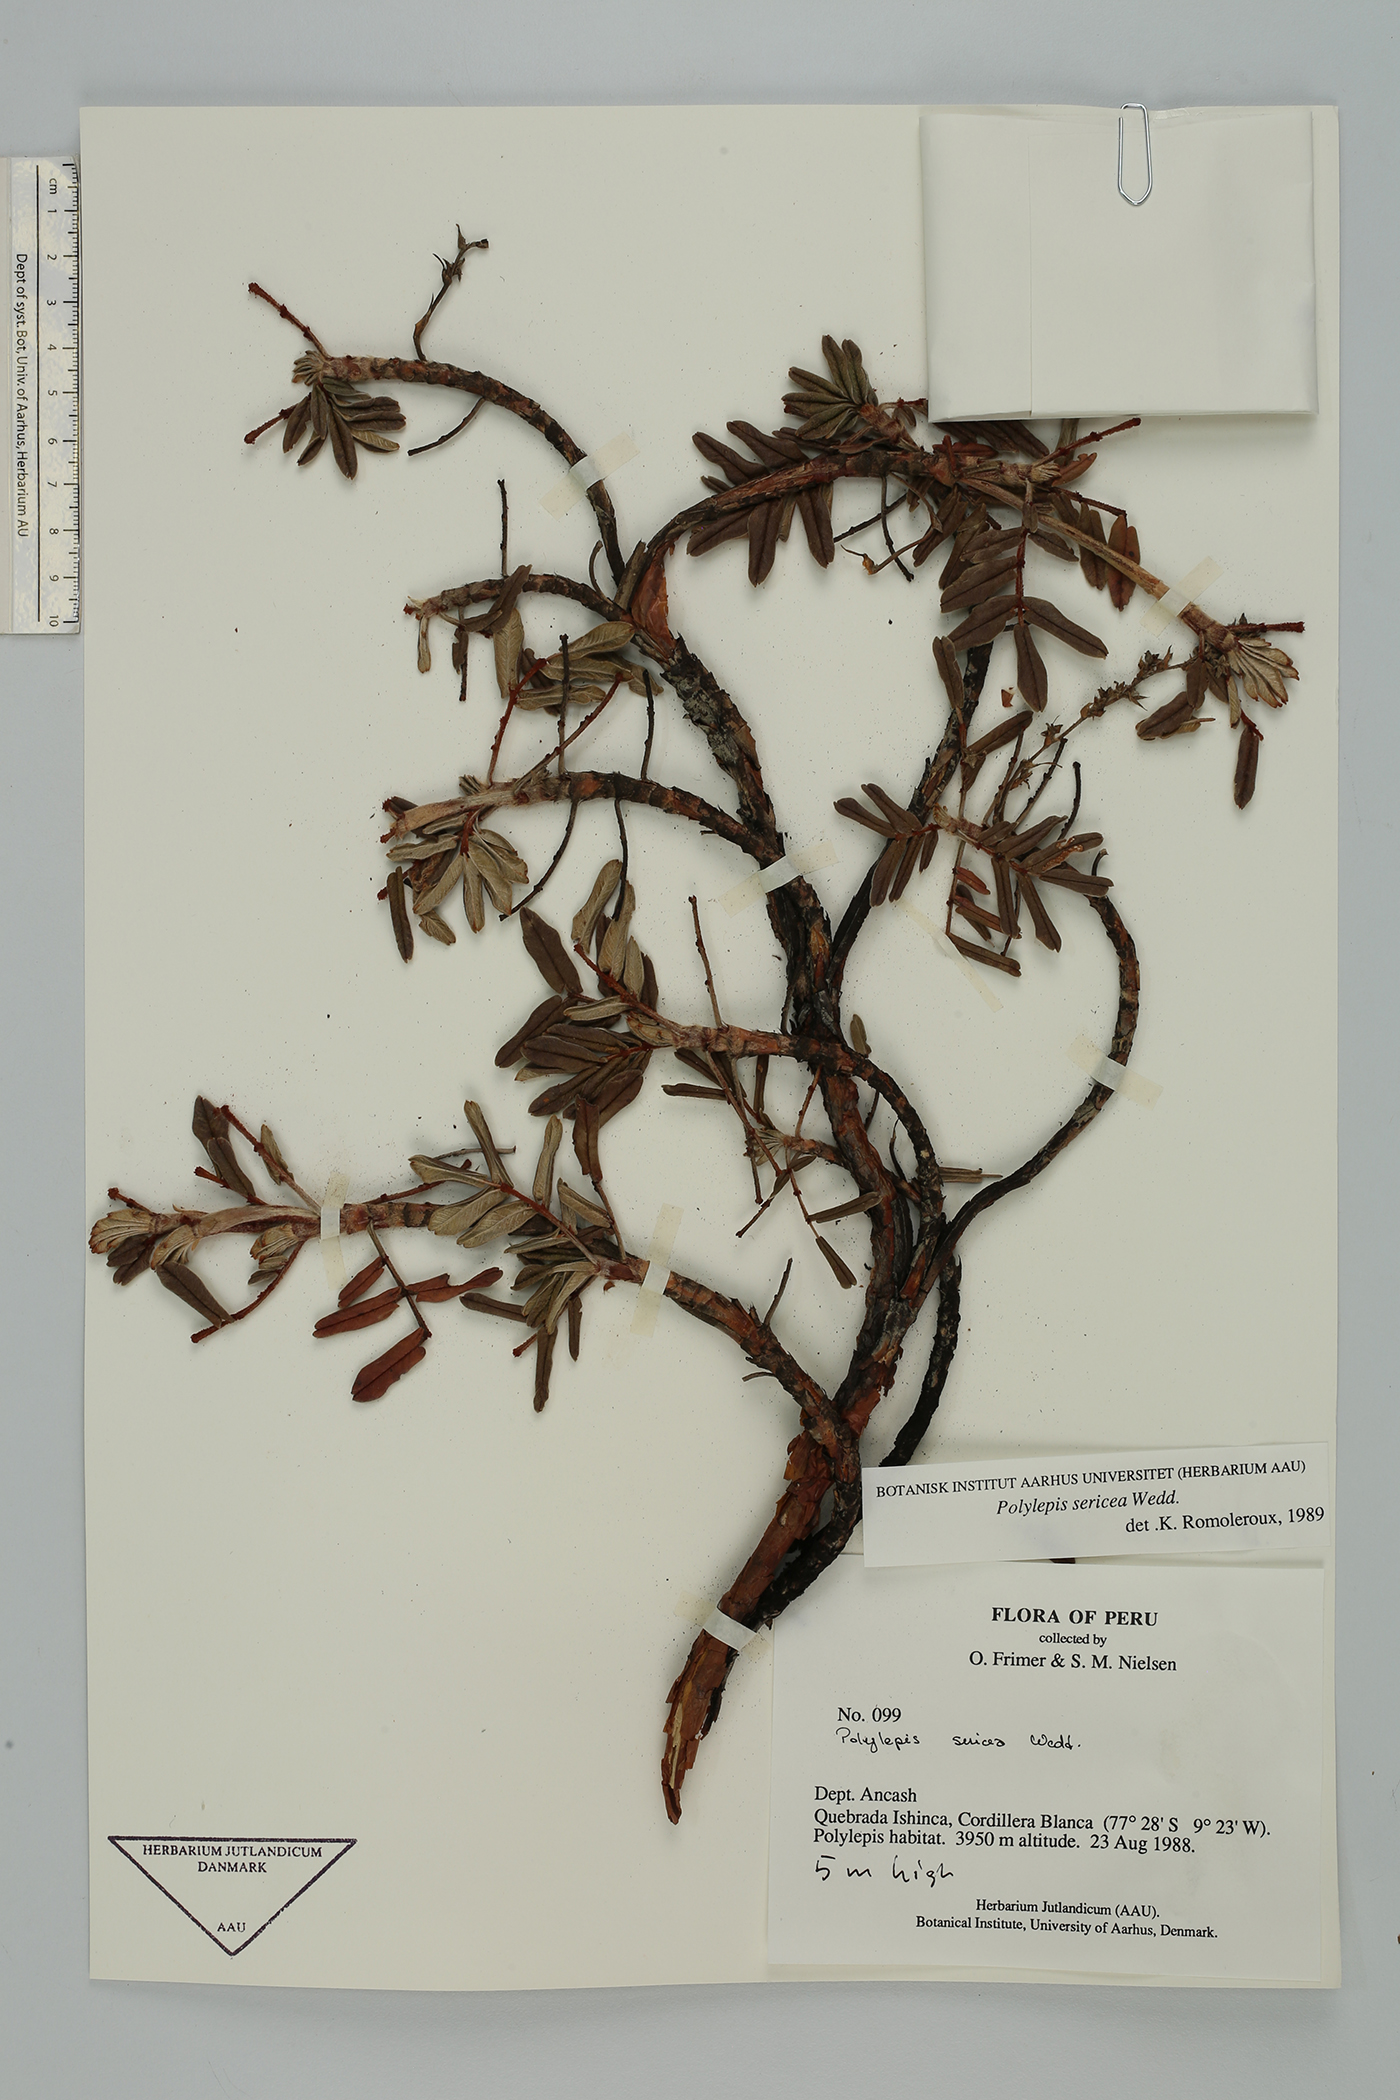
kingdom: Plantae
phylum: Tracheophyta
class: Magnoliopsida
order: Rosales
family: Rosaceae
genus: Polylepis
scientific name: Polylepis sericea
